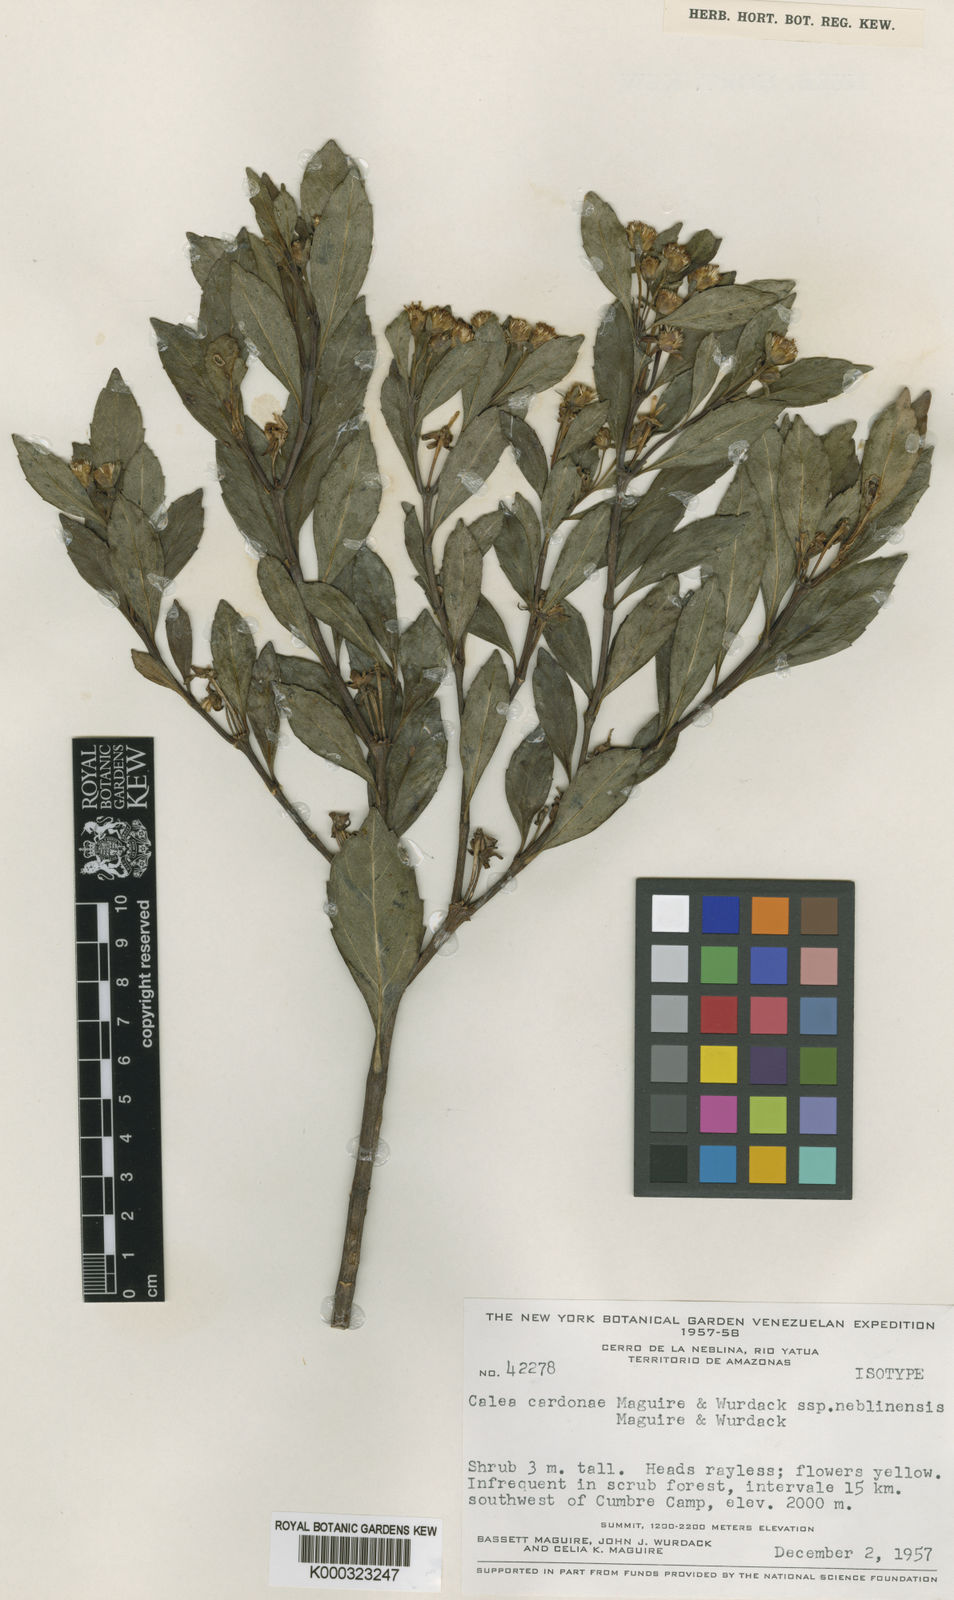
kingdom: Plantae
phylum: Tracheophyta
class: Magnoliopsida
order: Asterales
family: Asteraceae
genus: Calea
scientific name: Calea lucidivenia
